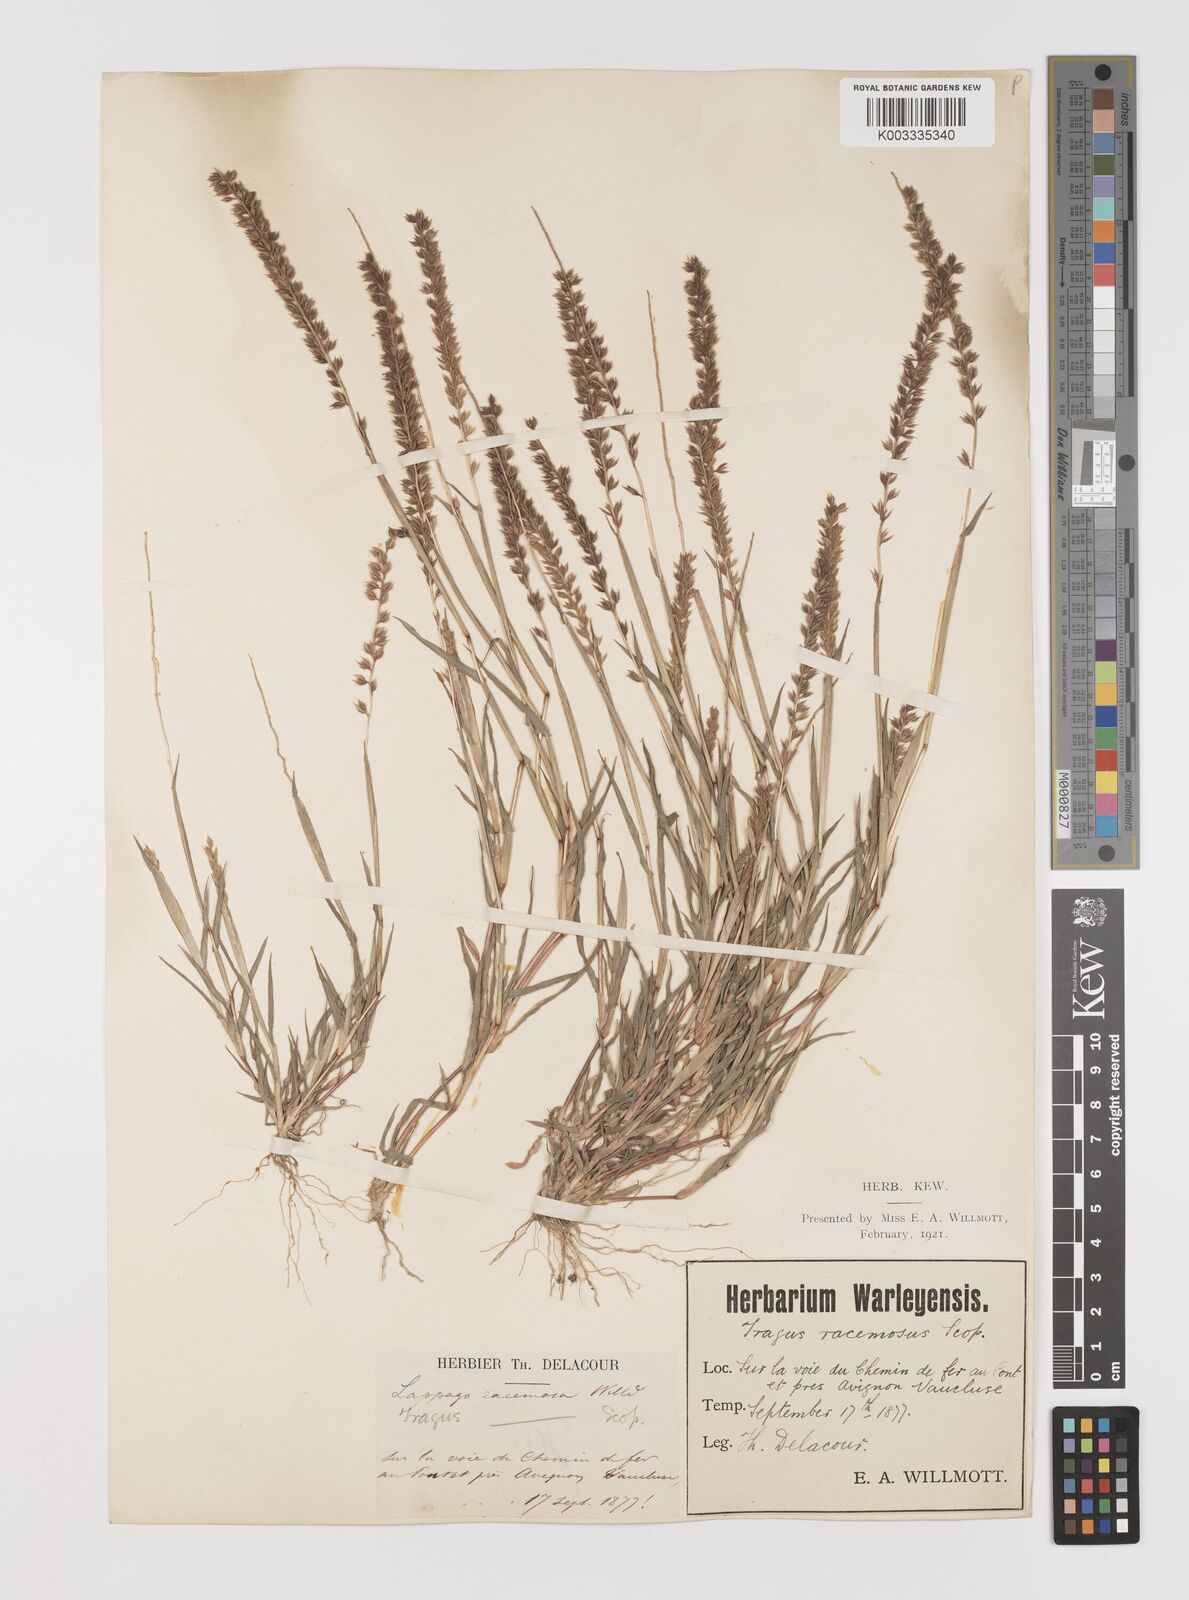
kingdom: Plantae
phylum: Tracheophyta
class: Liliopsida
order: Poales
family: Poaceae
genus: Tragus
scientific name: Tragus racemosus
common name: European bur-grass
